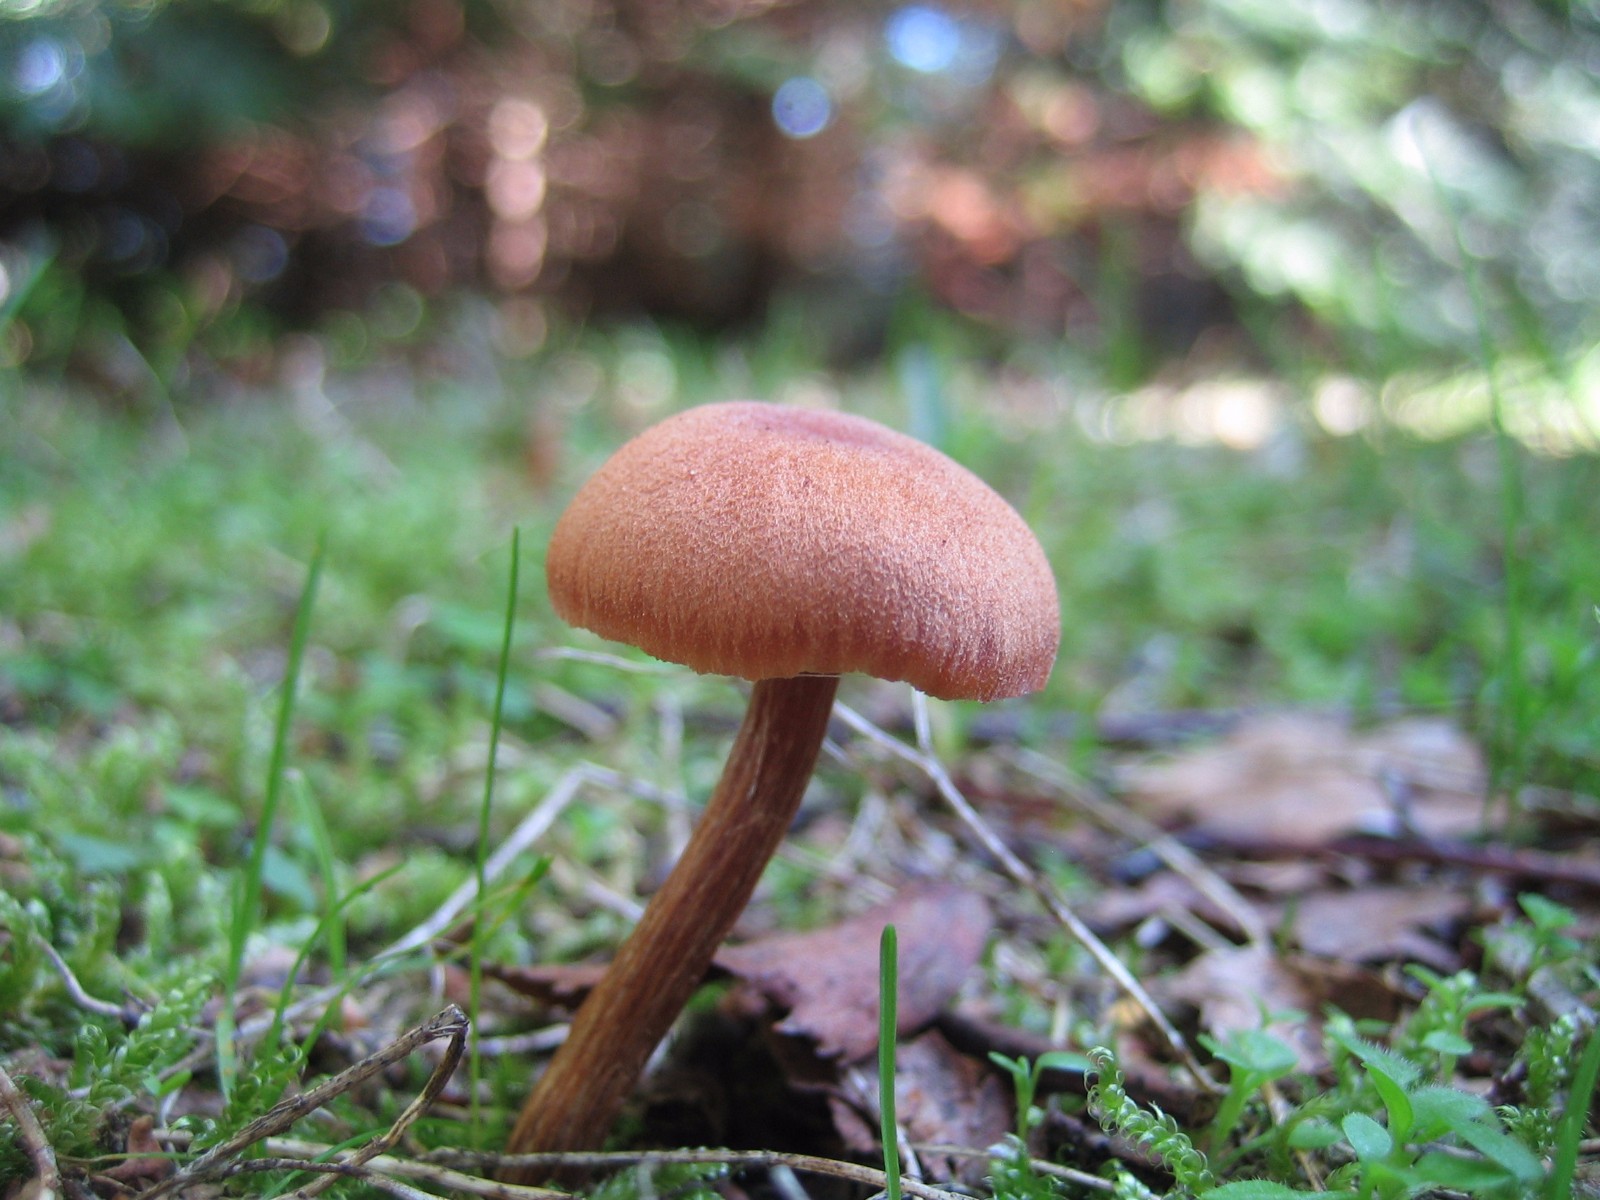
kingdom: Fungi
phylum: Basidiomycota
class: Agaricomycetes
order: Agaricales
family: Hydnangiaceae
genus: Laccaria
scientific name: Laccaria laccata
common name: rød ametysthat
